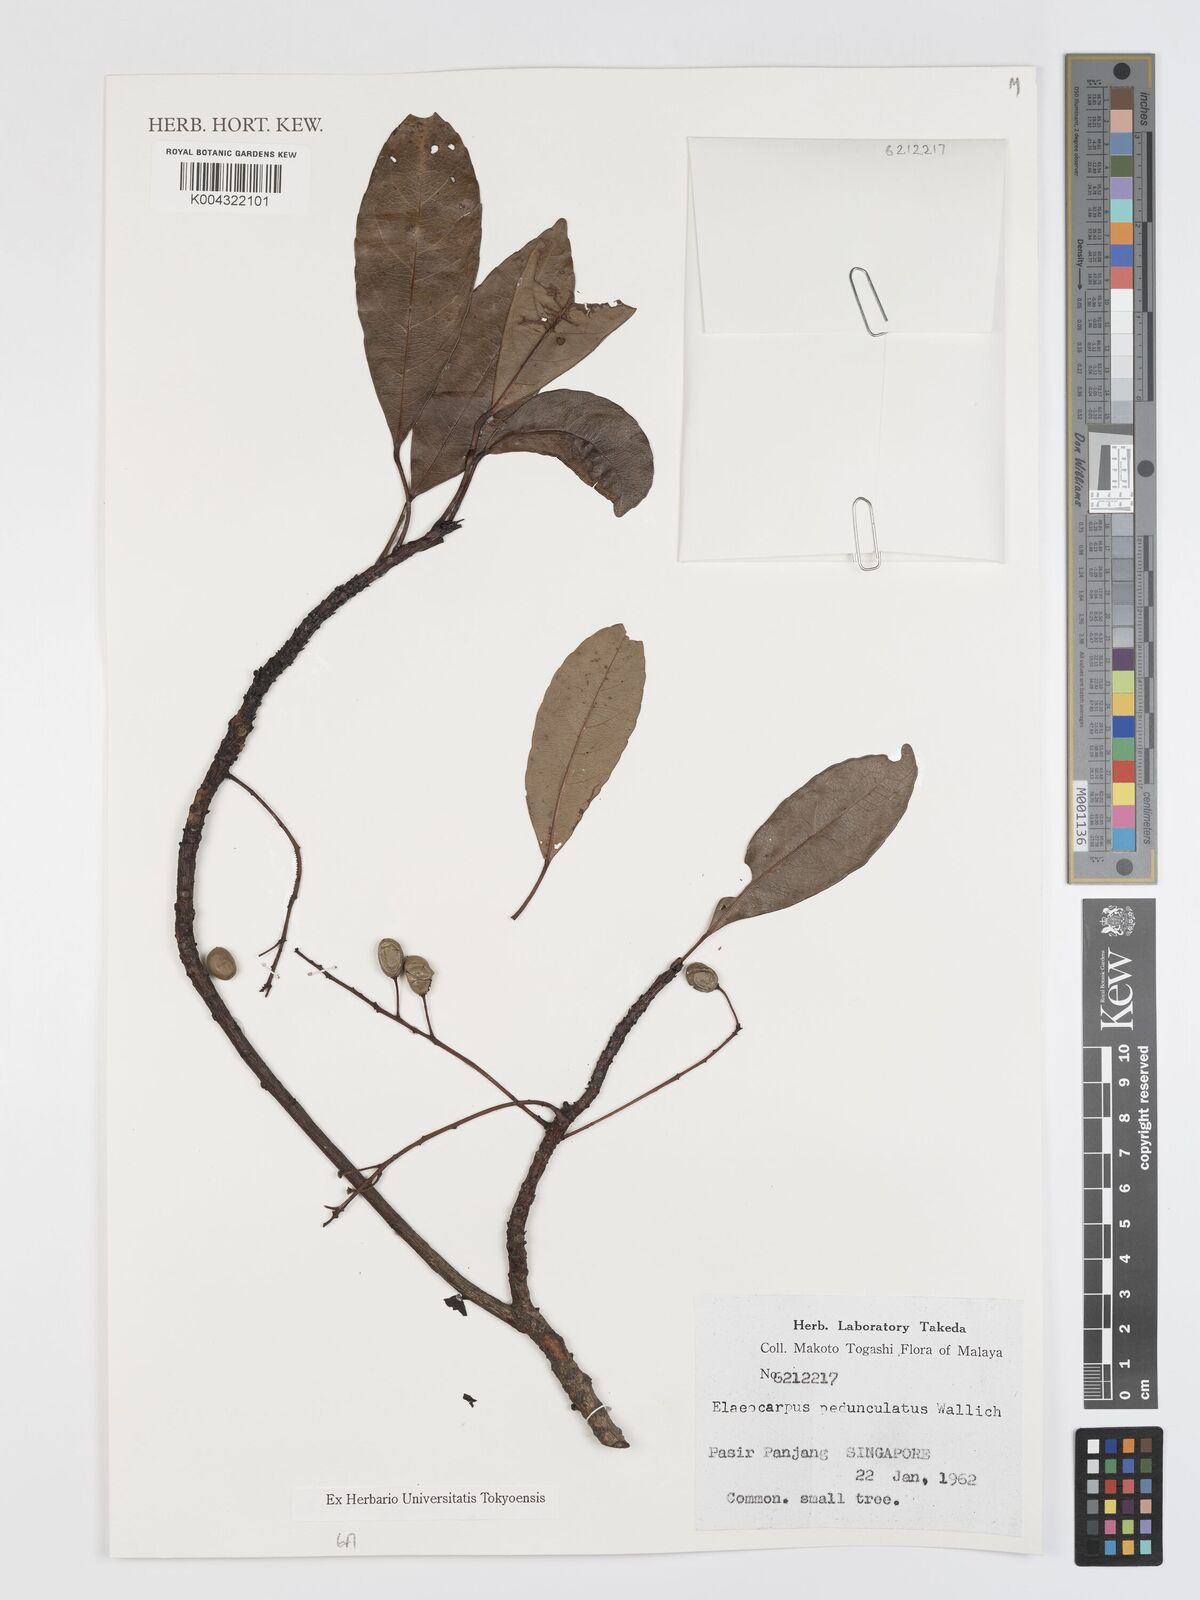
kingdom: Plantae
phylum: Tracheophyta
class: Magnoliopsida
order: Oxalidales
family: Elaeocarpaceae
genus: Elaeocarpus
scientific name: Elaeocarpus pedunculatus
